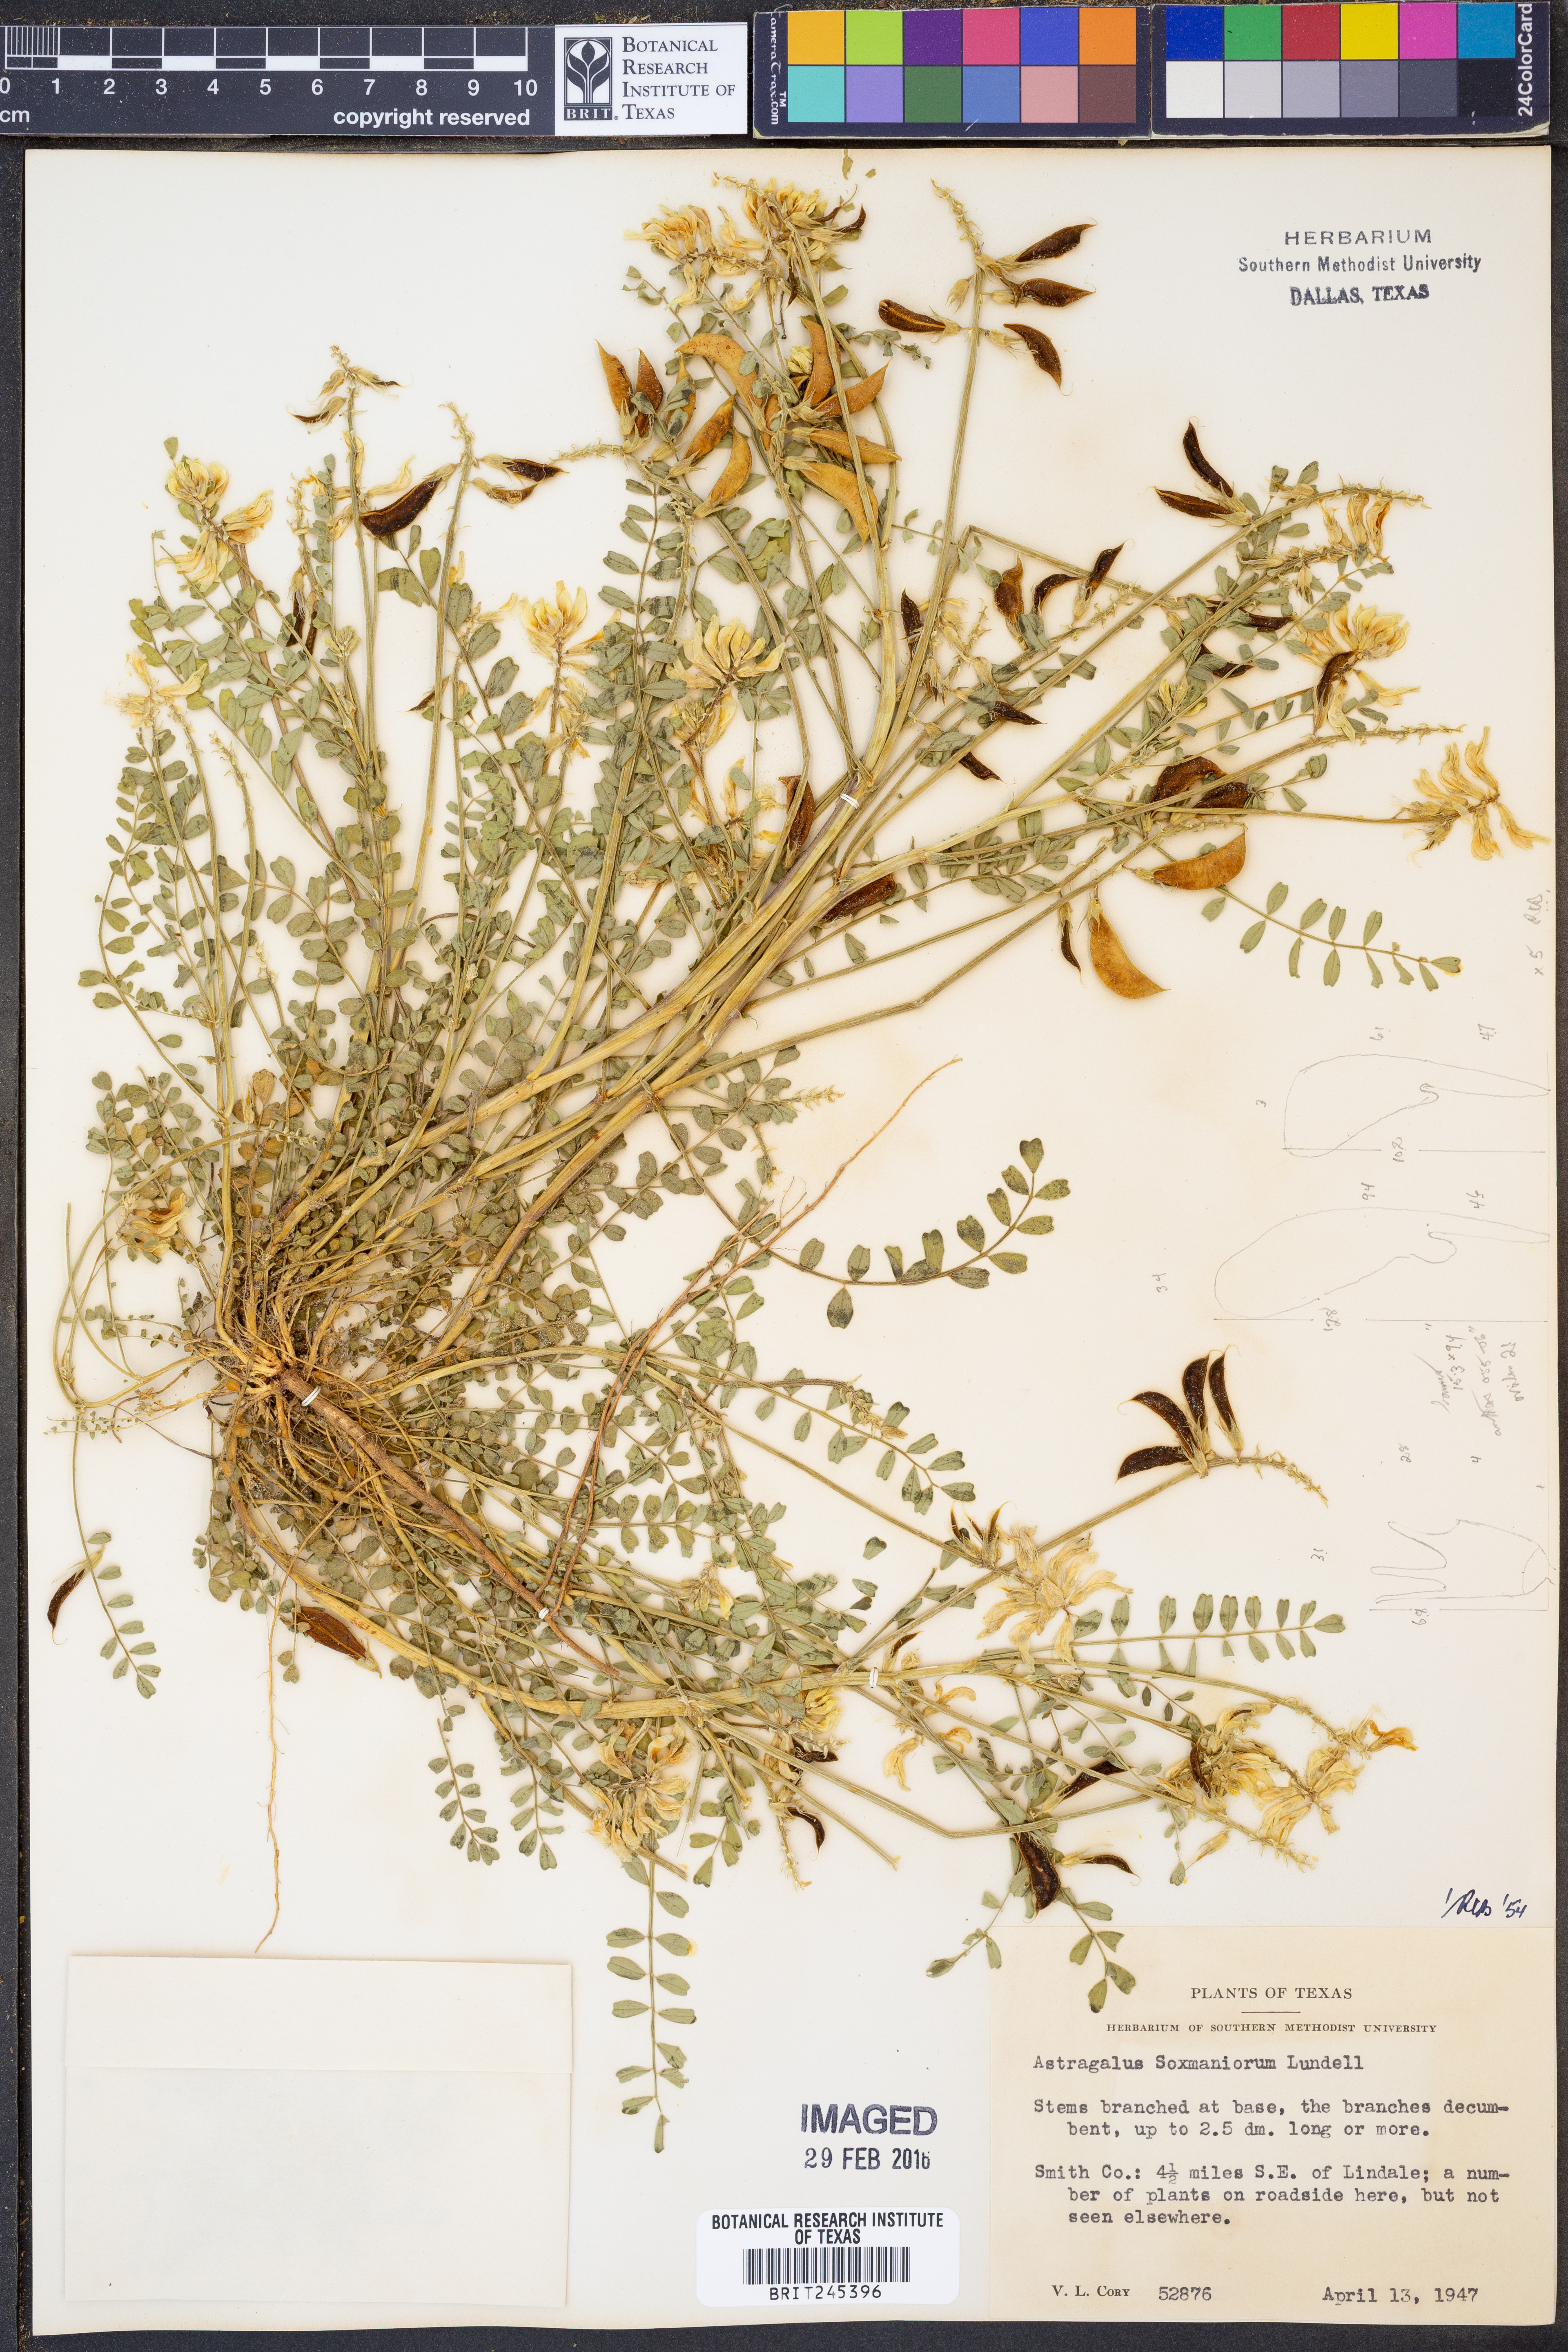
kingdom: Plantae
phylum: Tracheophyta
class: Magnoliopsida
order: Fabales
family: Fabaceae
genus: Astragalus
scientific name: Astragalus soxmaniorum
